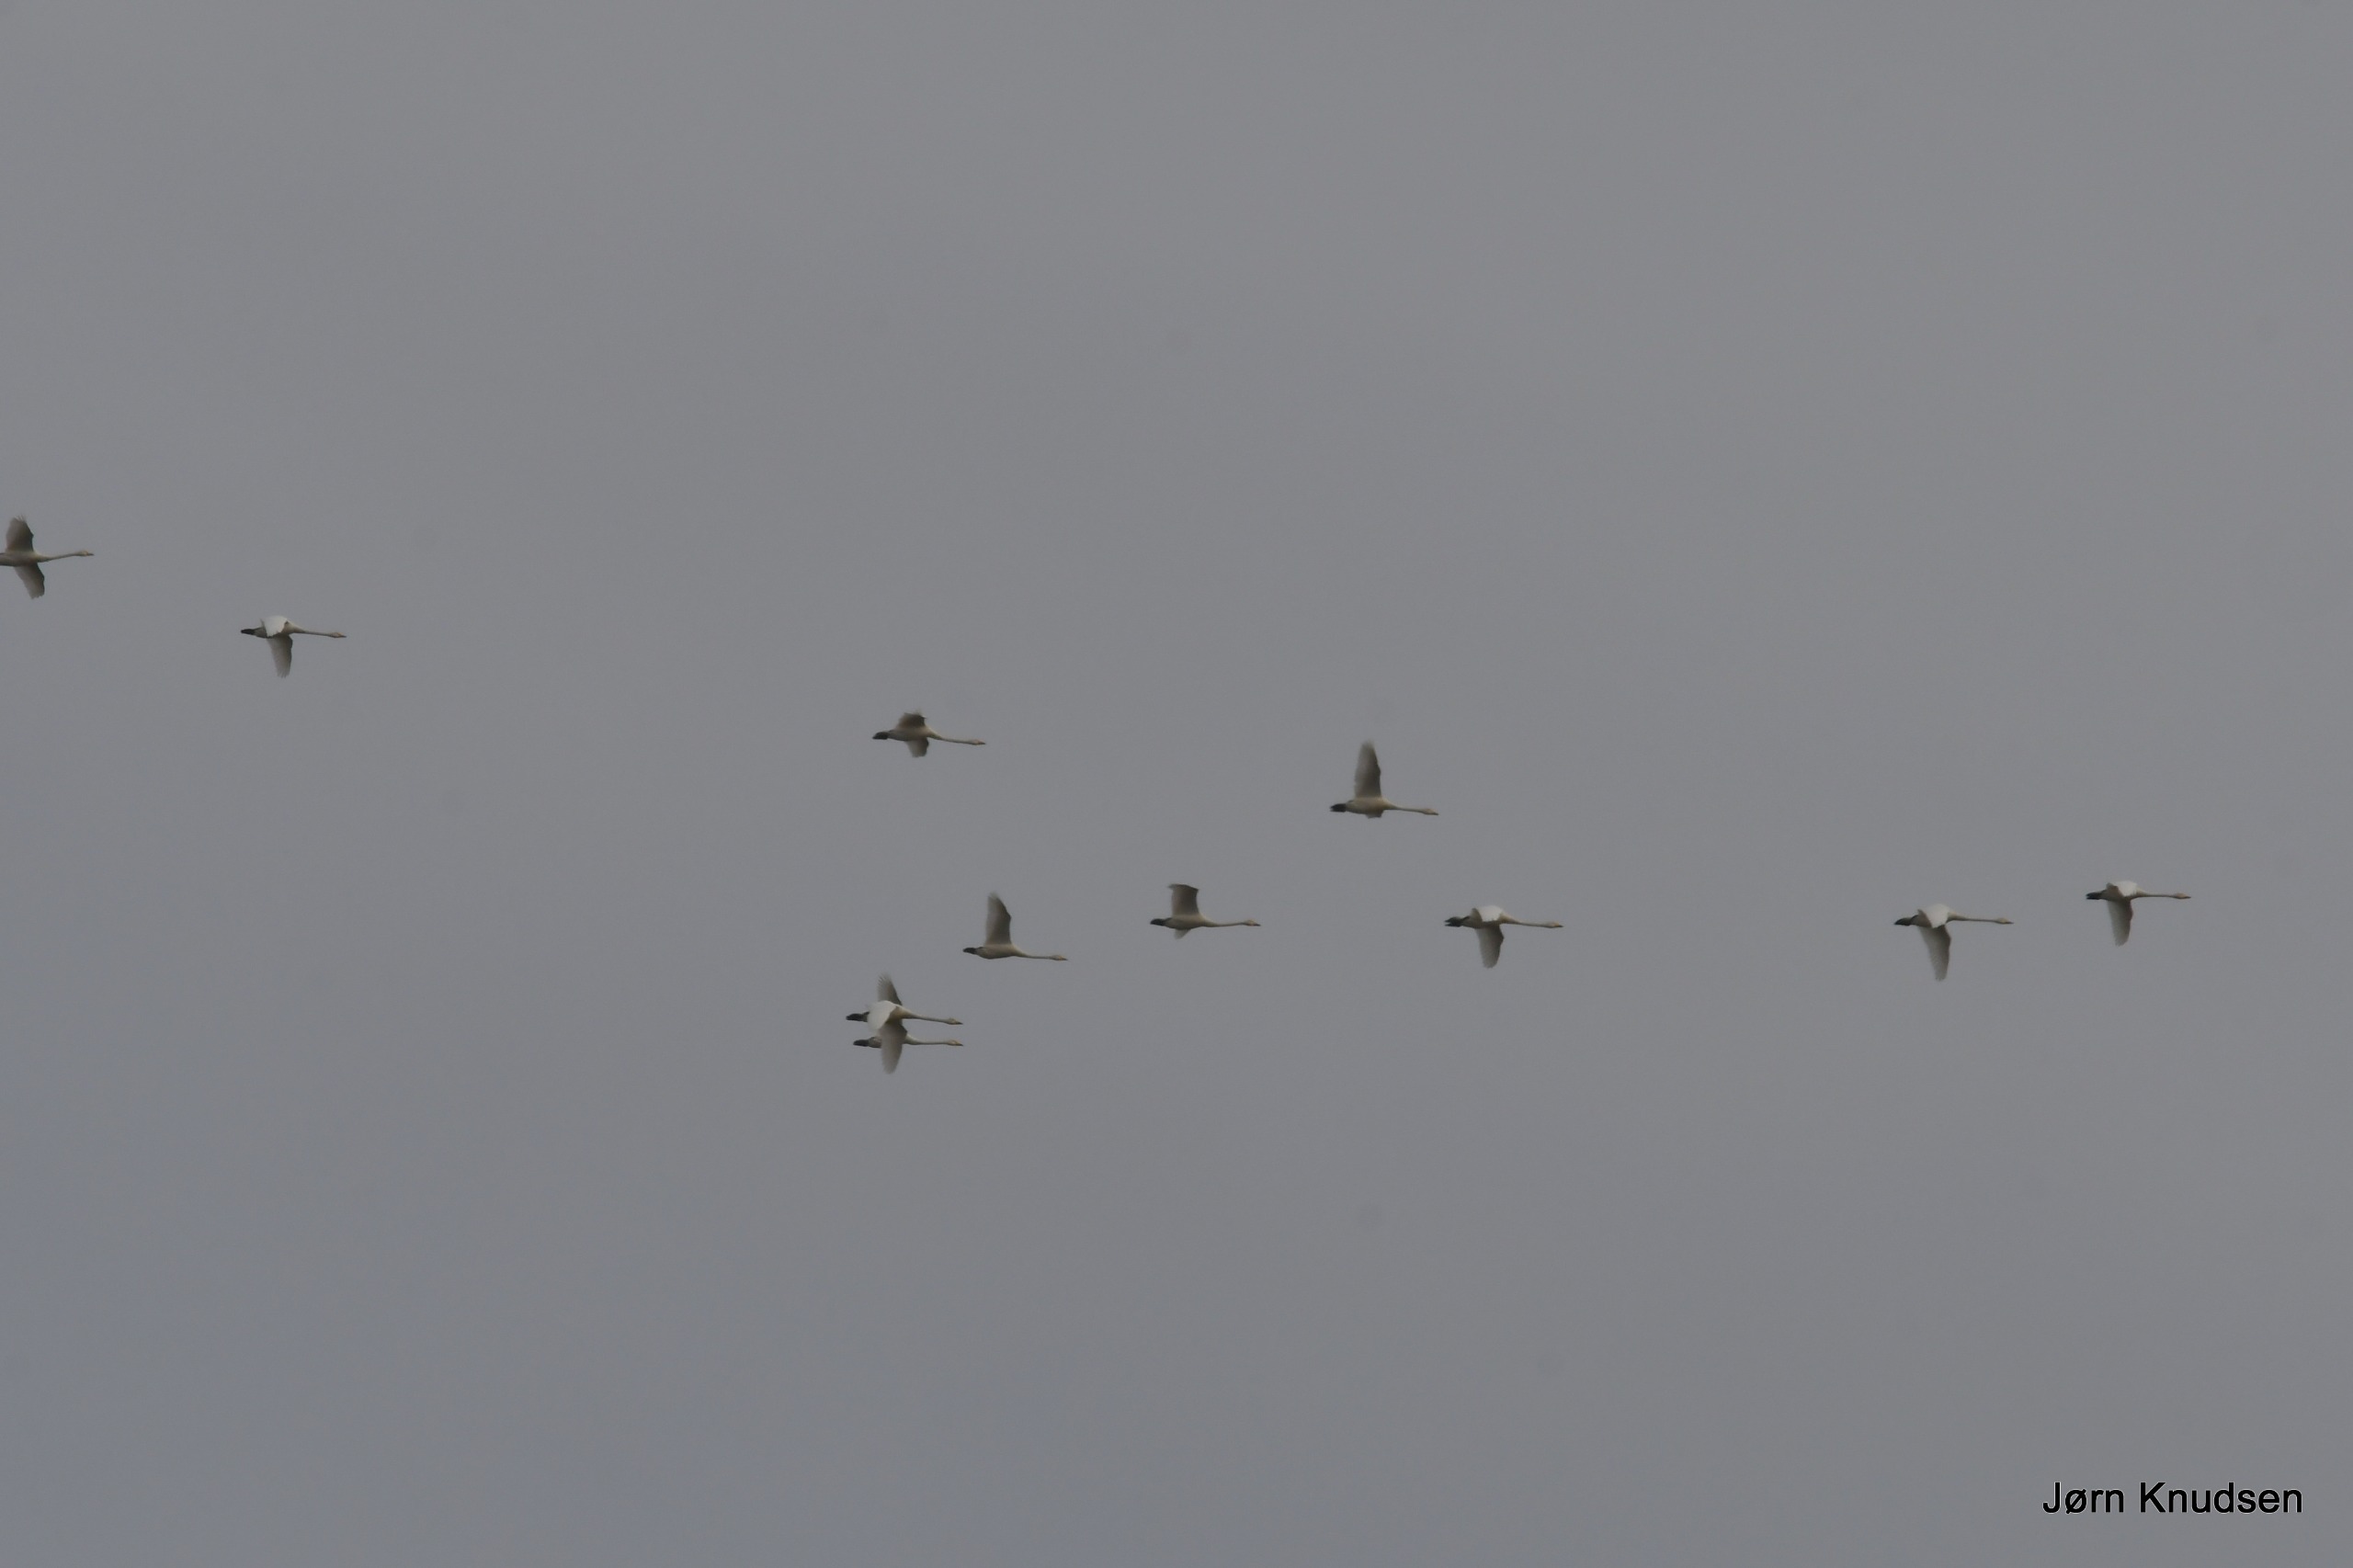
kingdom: Animalia
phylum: Chordata
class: Aves
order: Anseriformes
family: Anatidae
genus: Cygnus
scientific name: Cygnus cygnus
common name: Sangsvane
